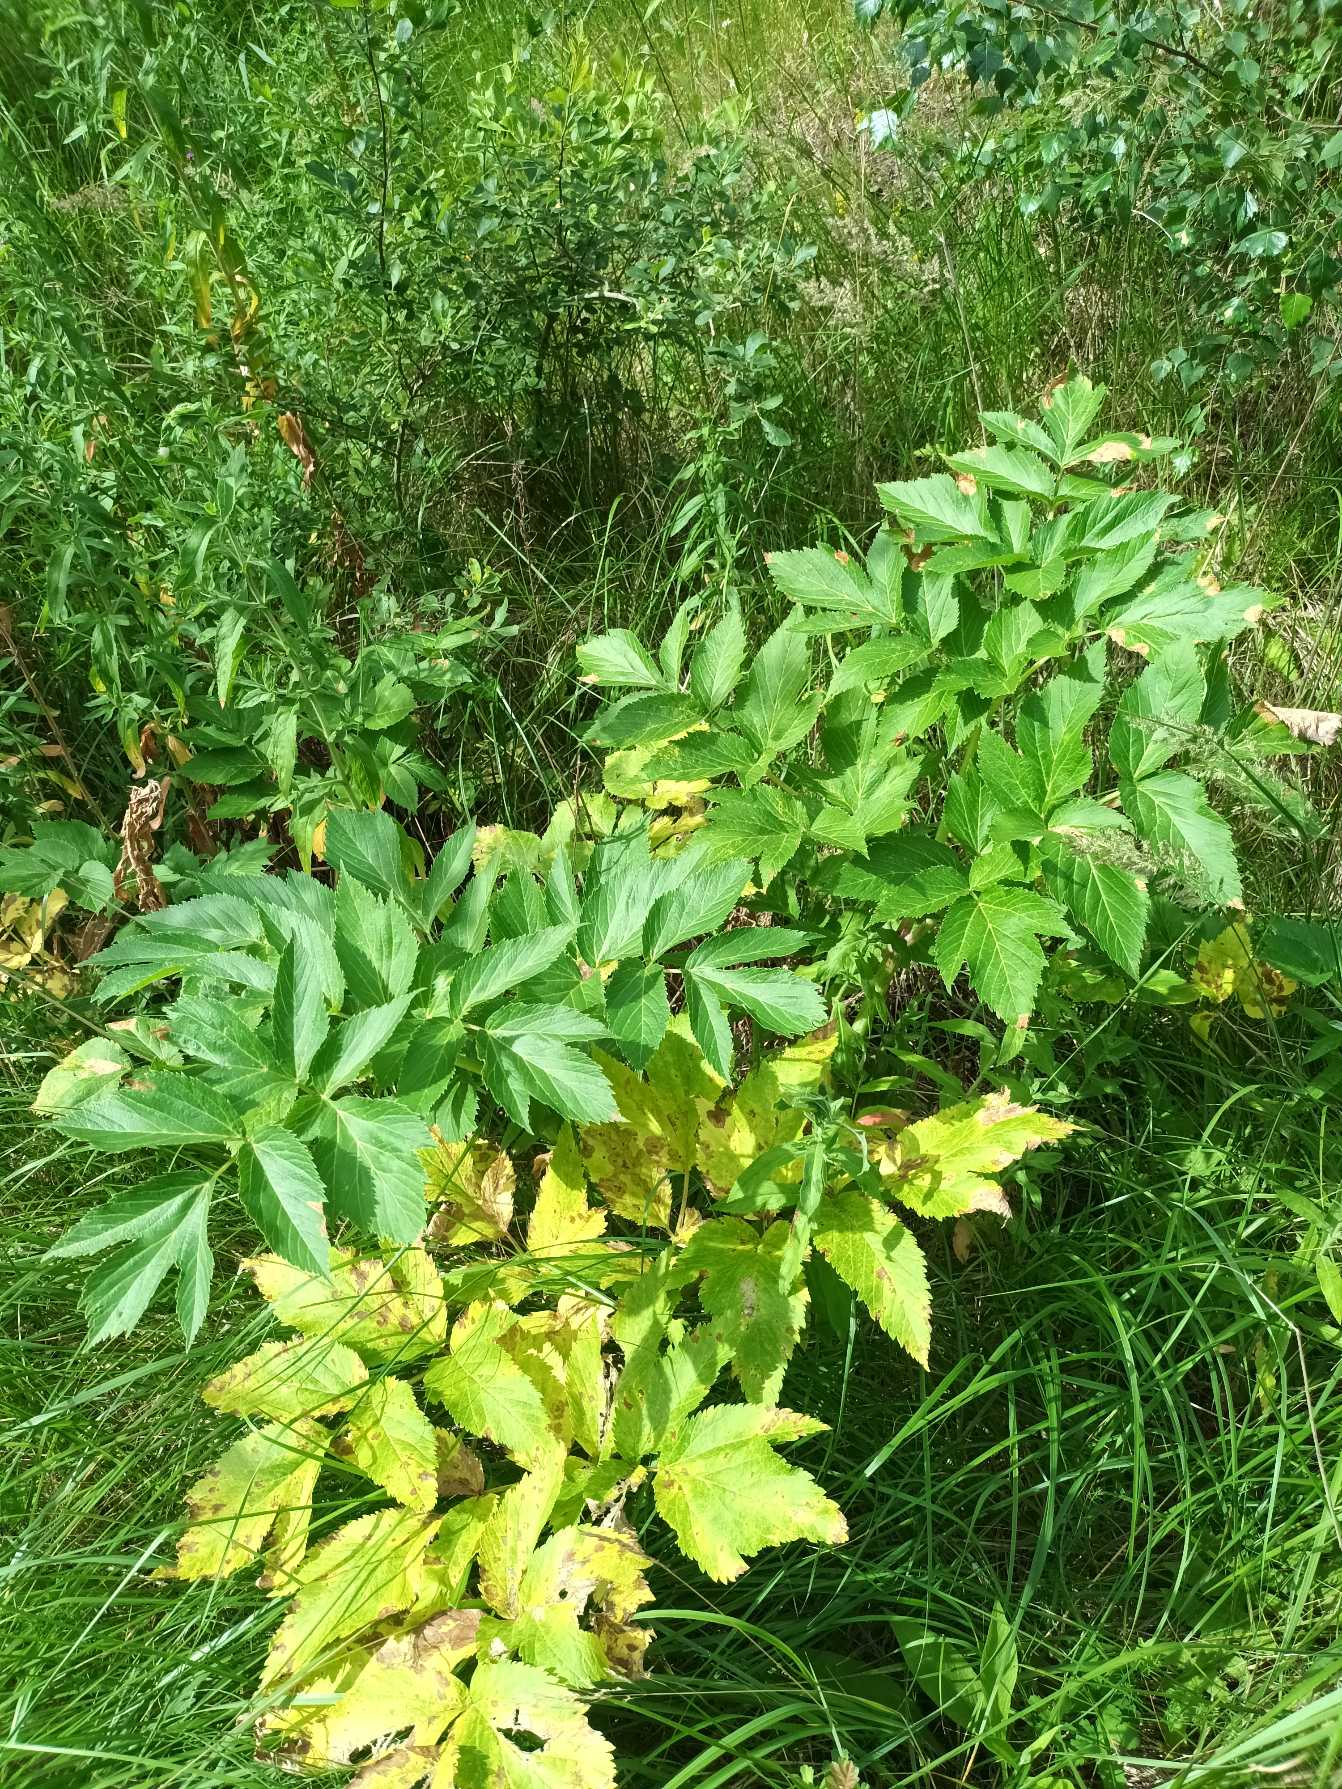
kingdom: Plantae
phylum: Tracheophyta
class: Magnoliopsida
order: Apiales
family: Apiaceae
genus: Angelica
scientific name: Angelica archangelica
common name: Fjeld-kvan
